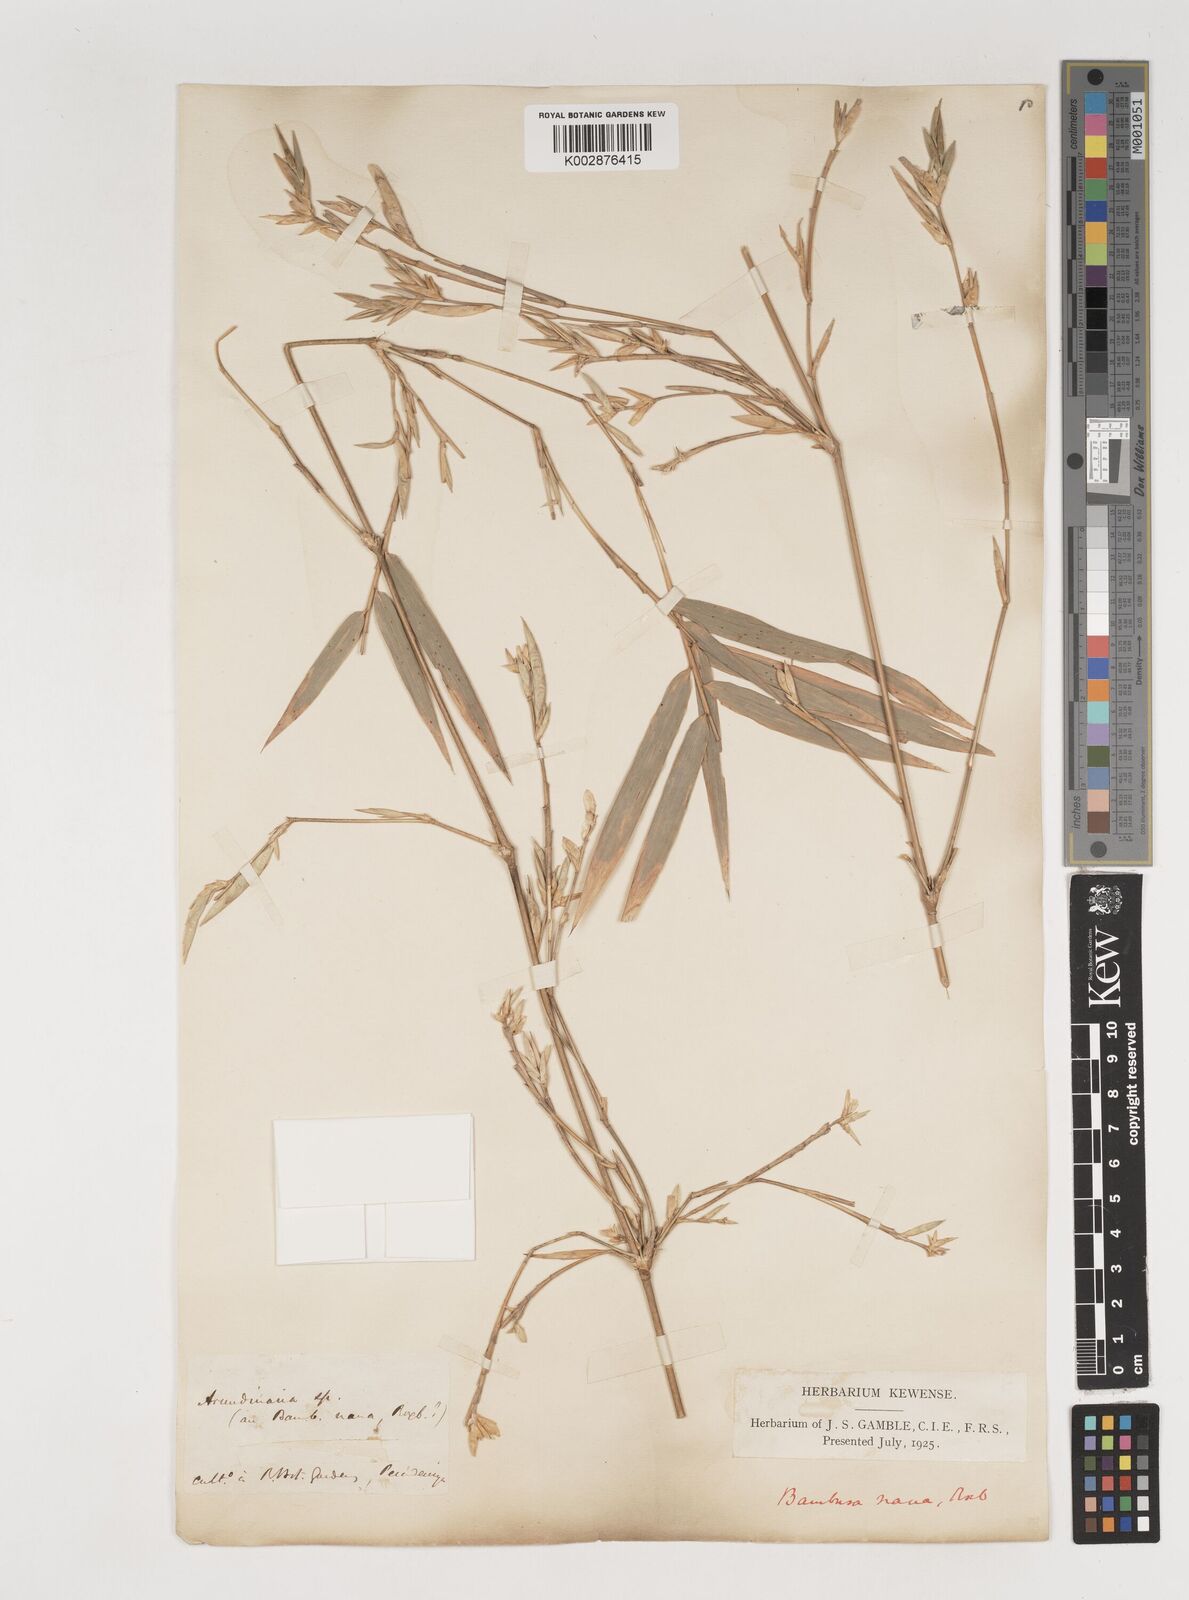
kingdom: Plantae
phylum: Tracheophyta
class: Liliopsida
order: Poales
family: Poaceae
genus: Bambusa
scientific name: Bambusa multiplex
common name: Hedge bamboo
